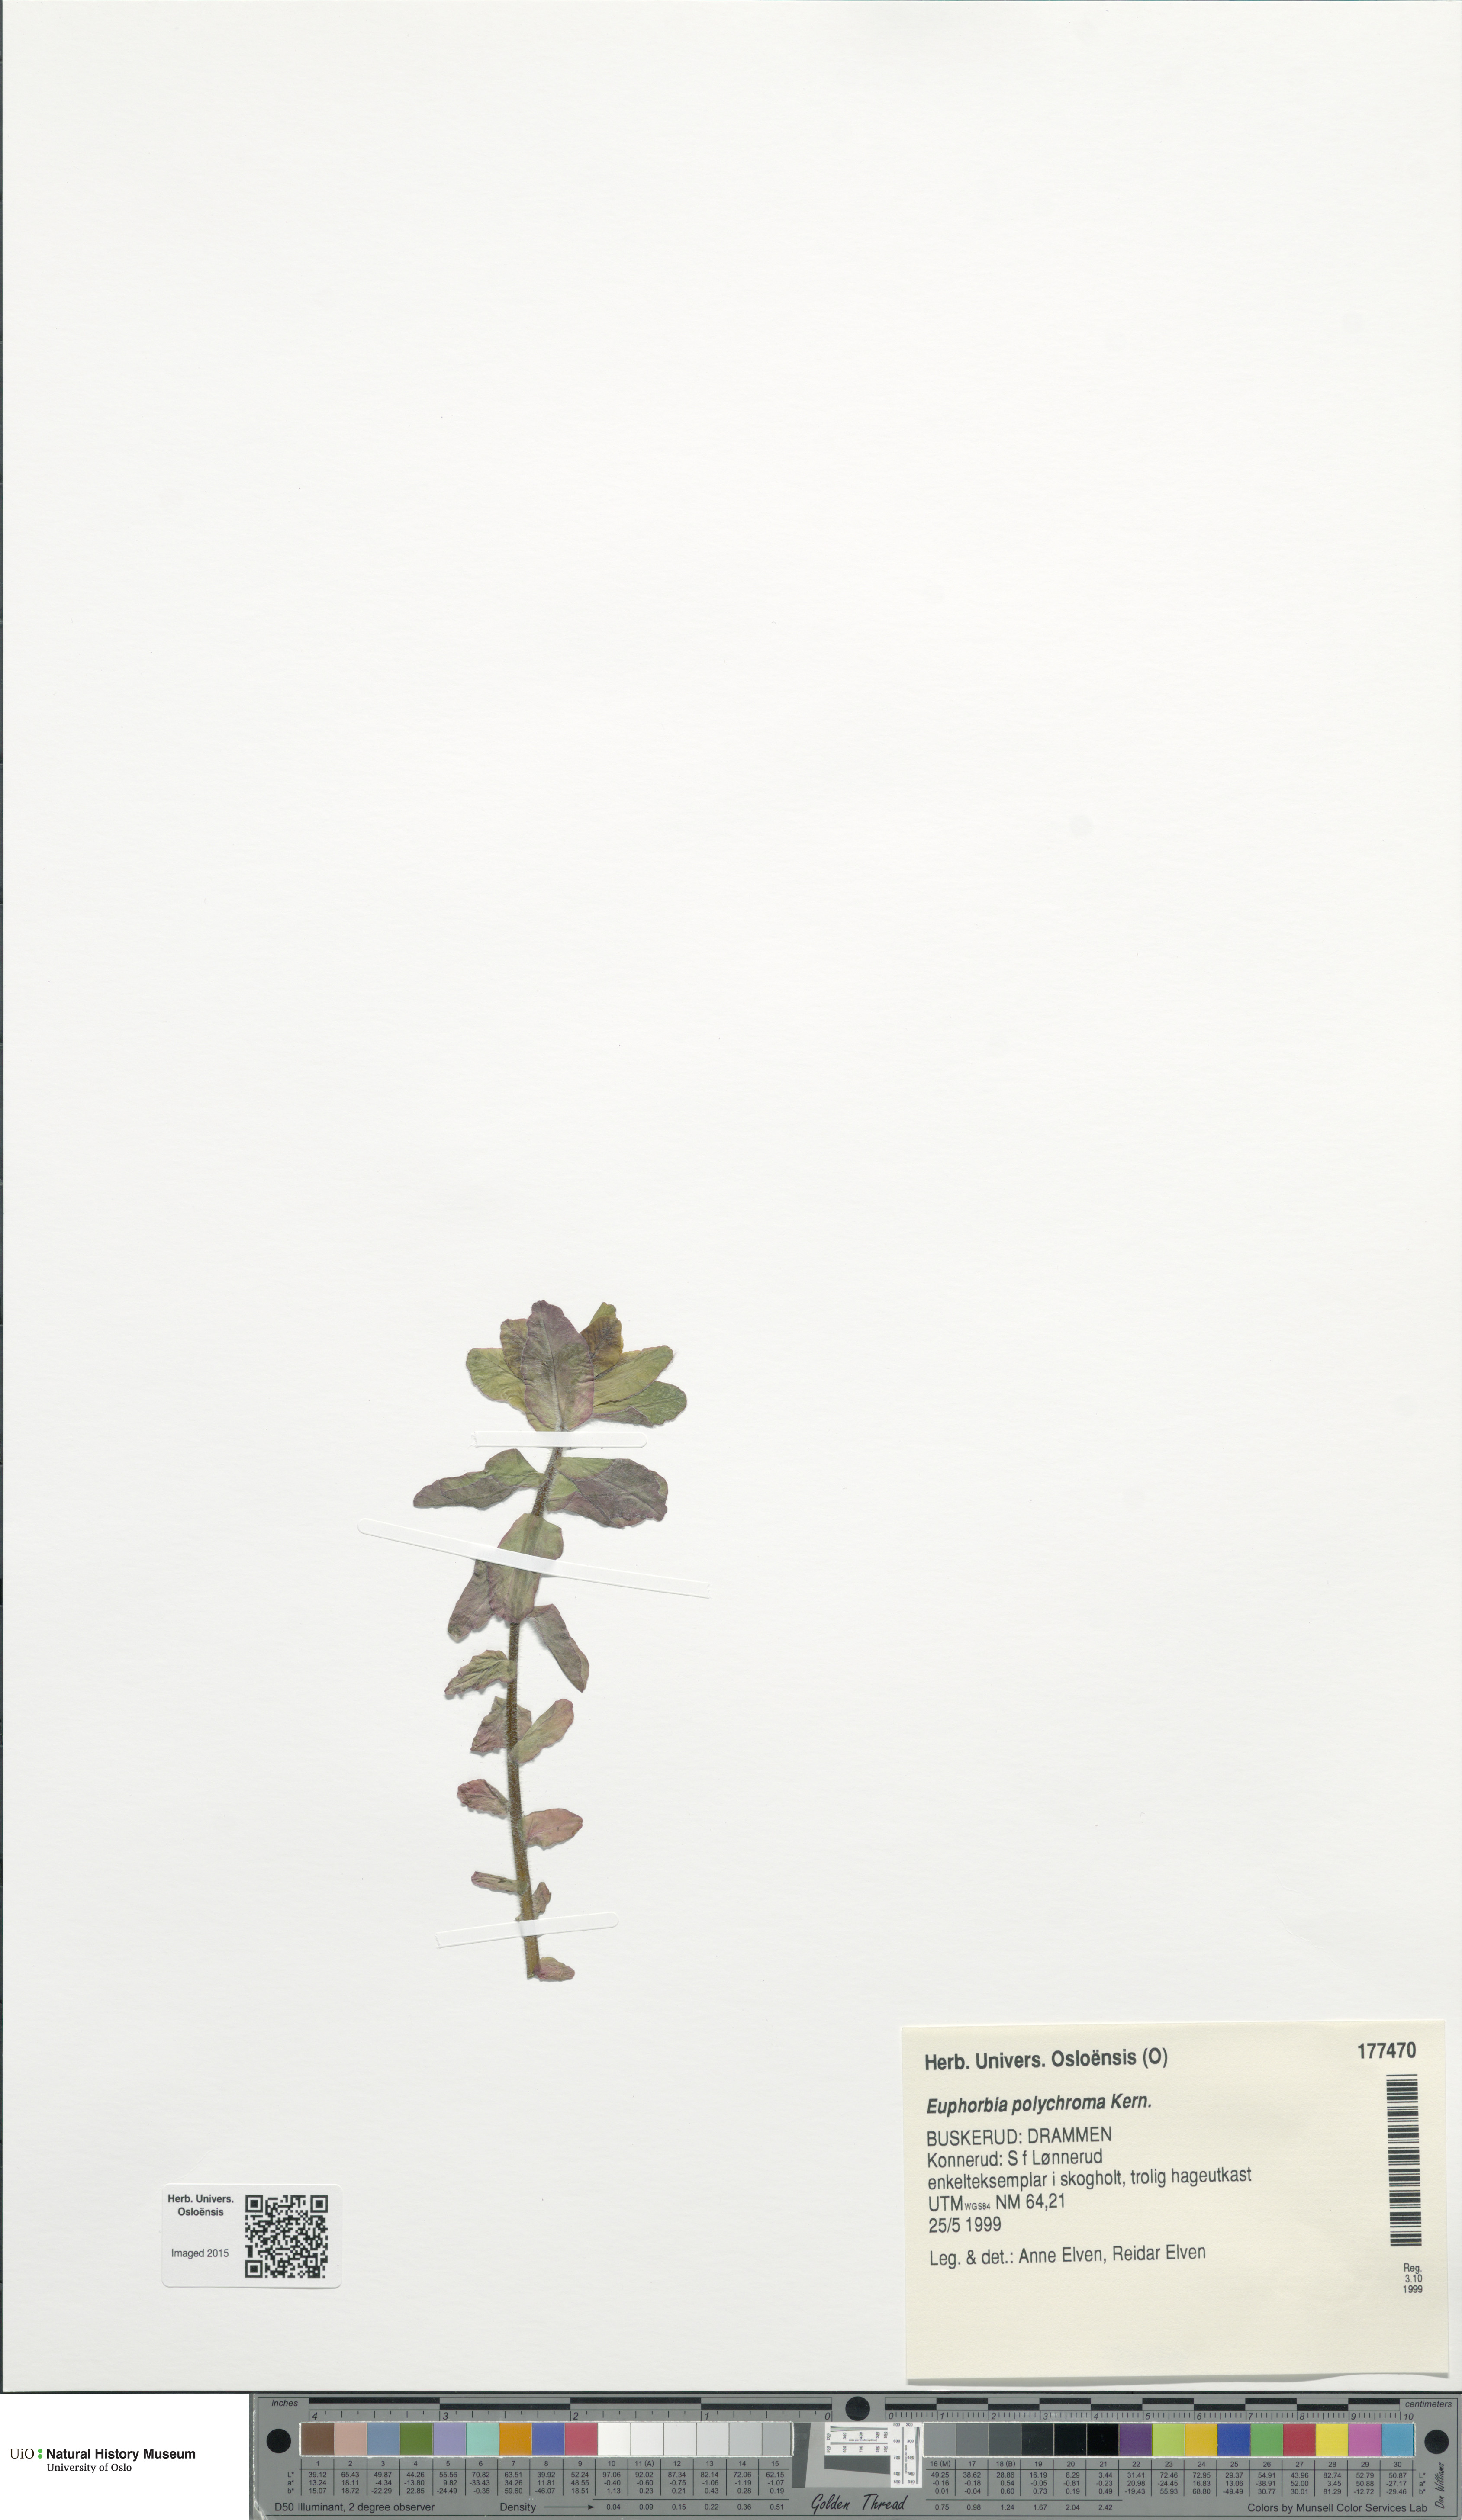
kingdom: Plantae
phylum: Tracheophyta
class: Magnoliopsida
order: Malpighiales
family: Euphorbiaceae
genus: Euphorbia
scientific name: Euphorbia epithymoides
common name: Cushion spurge
